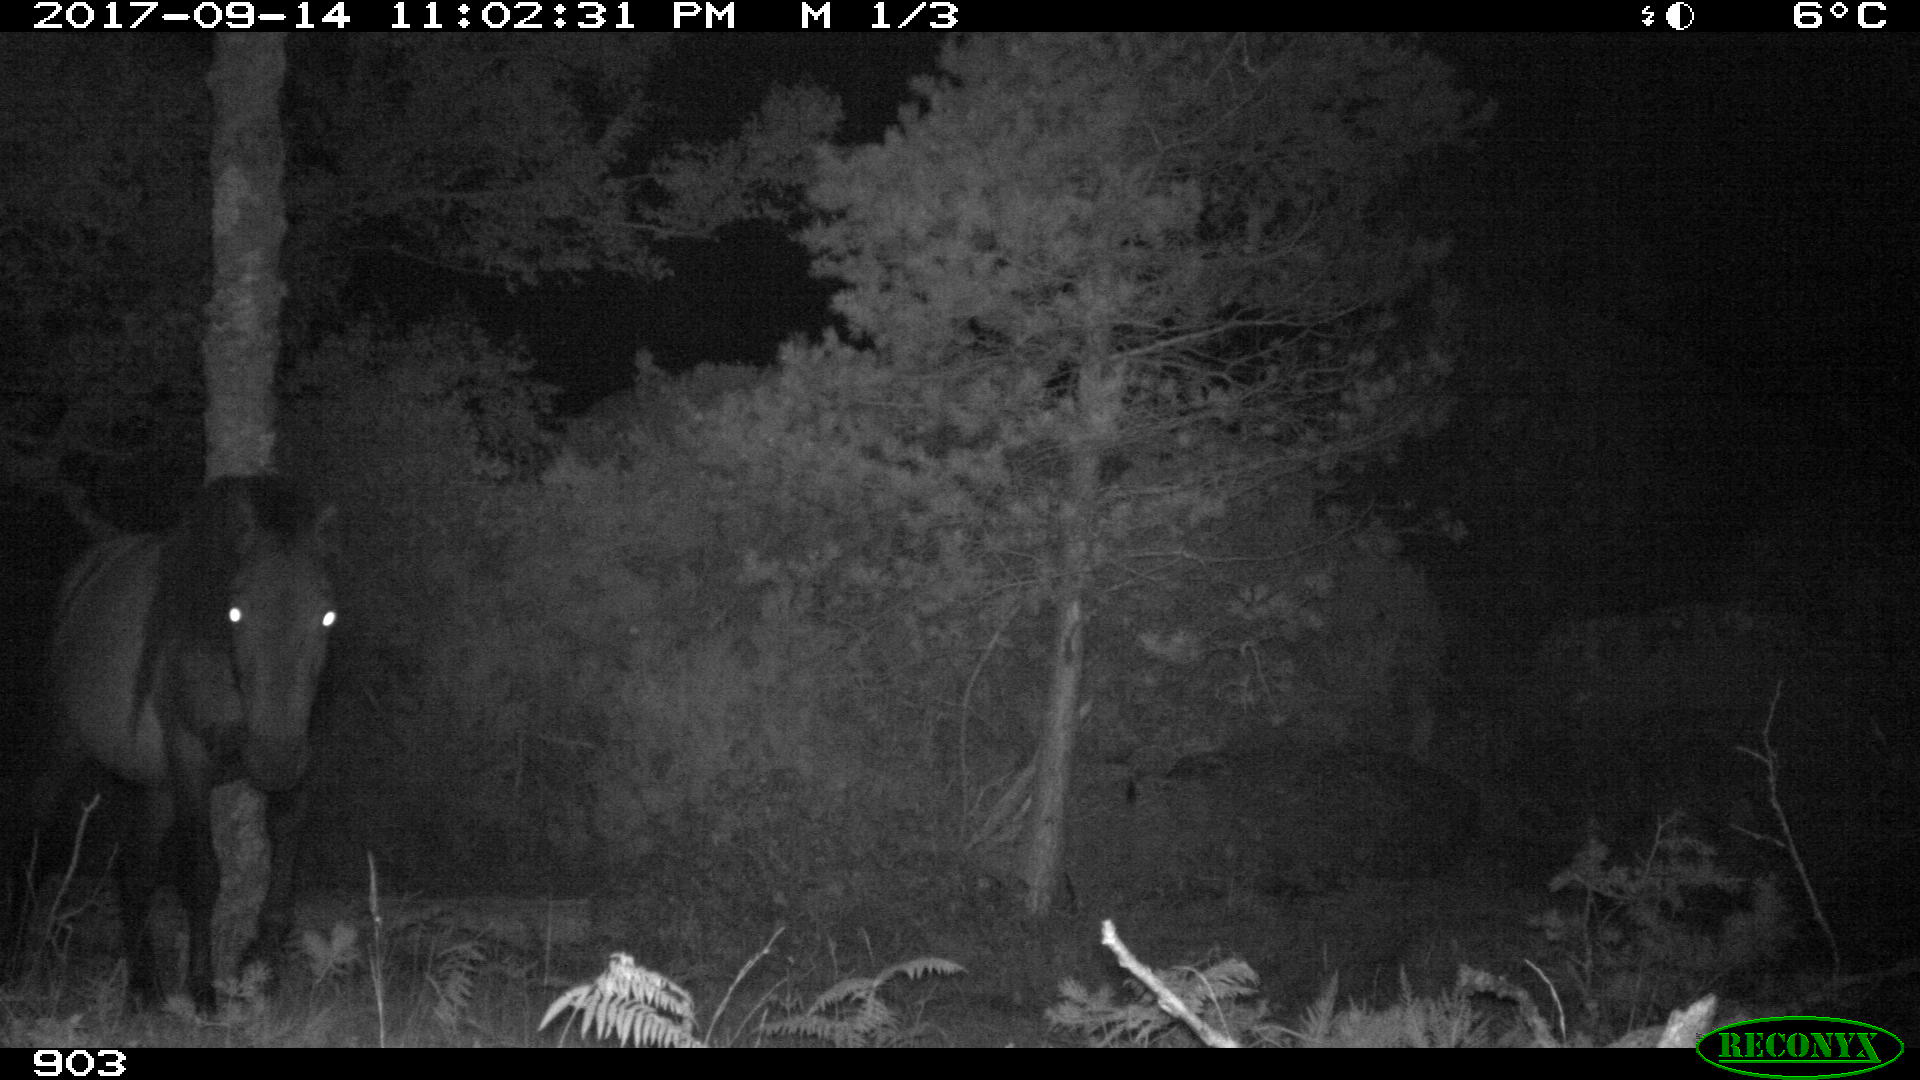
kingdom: Animalia
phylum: Chordata
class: Mammalia
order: Perissodactyla
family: Equidae
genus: Equus
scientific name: Equus caballus
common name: Horse
